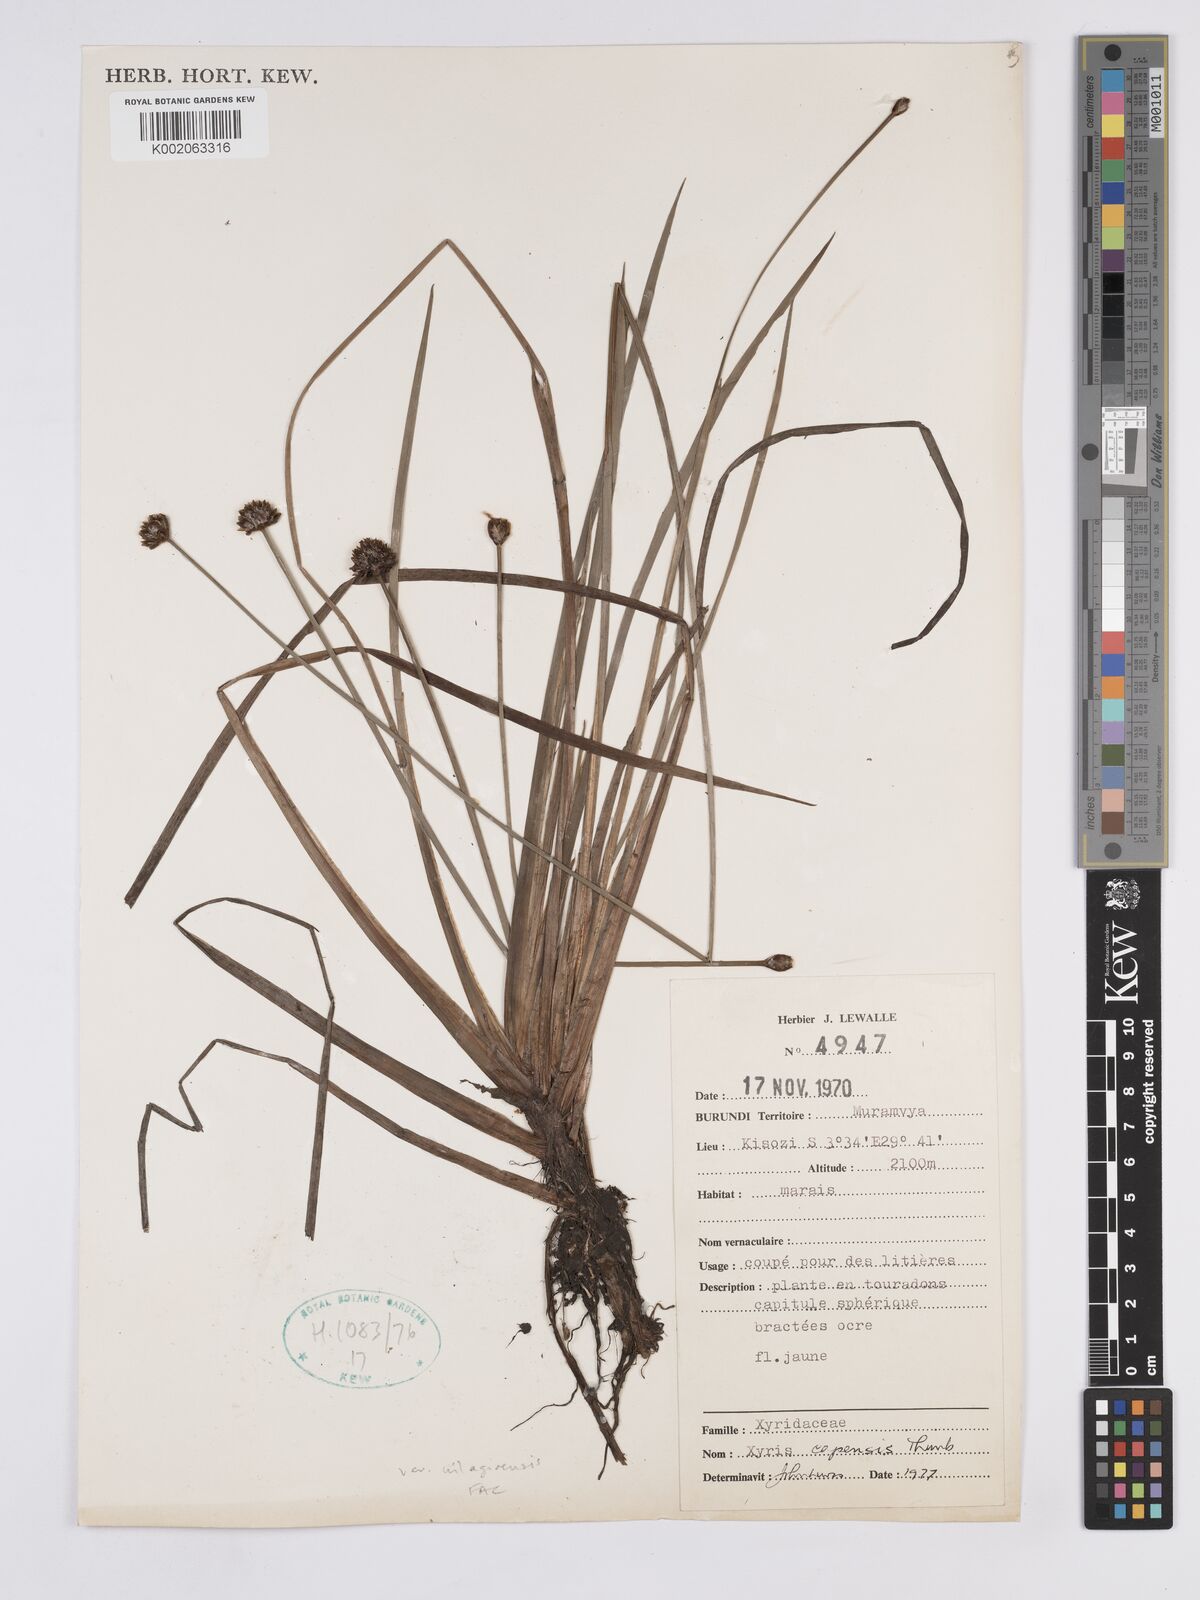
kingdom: Plantae
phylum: Tracheophyta
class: Liliopsida
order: Poales
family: Xyridaceae
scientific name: Xyridaceae
